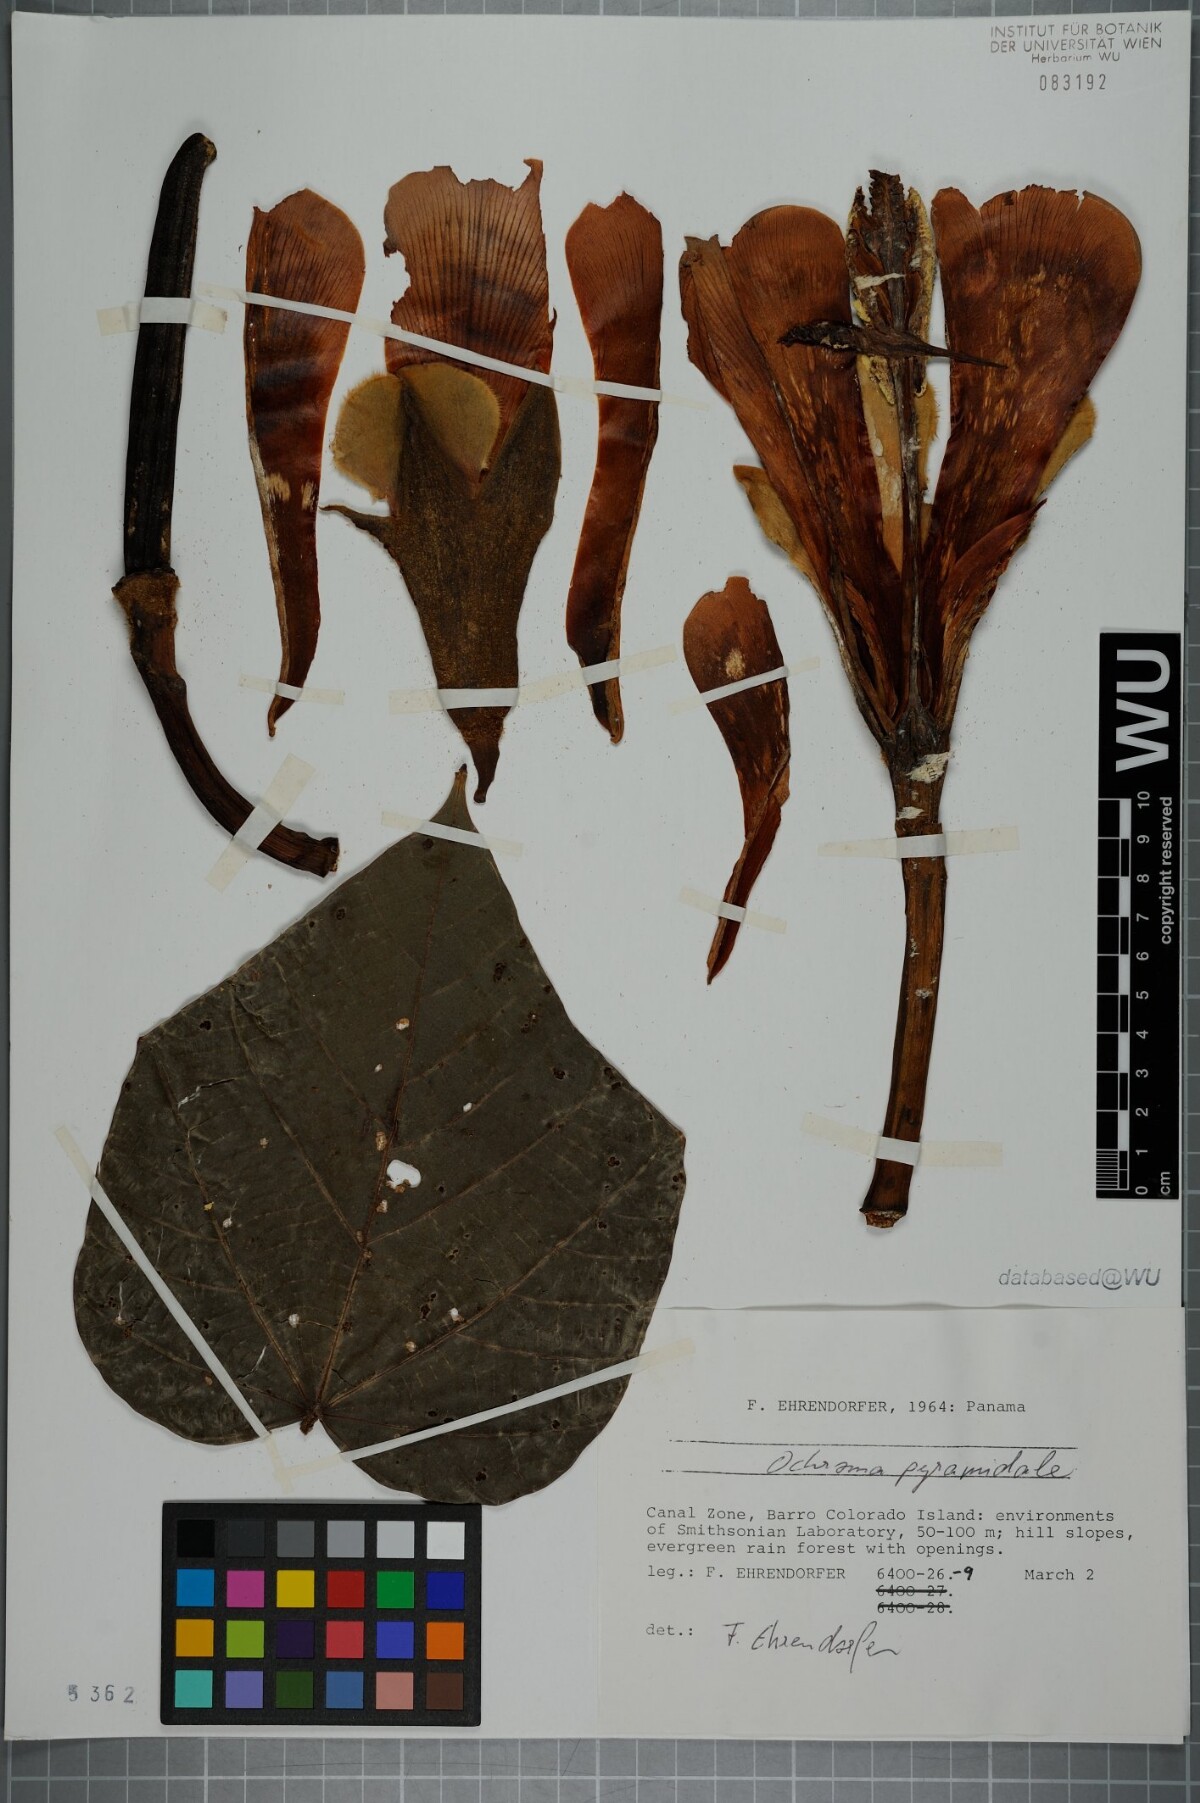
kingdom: Plantae
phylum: Tracheophyta
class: Magnoliopsida
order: Malvales
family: Malvaceae
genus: Ochroma
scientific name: Ochroma pyramidale
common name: Balsa
